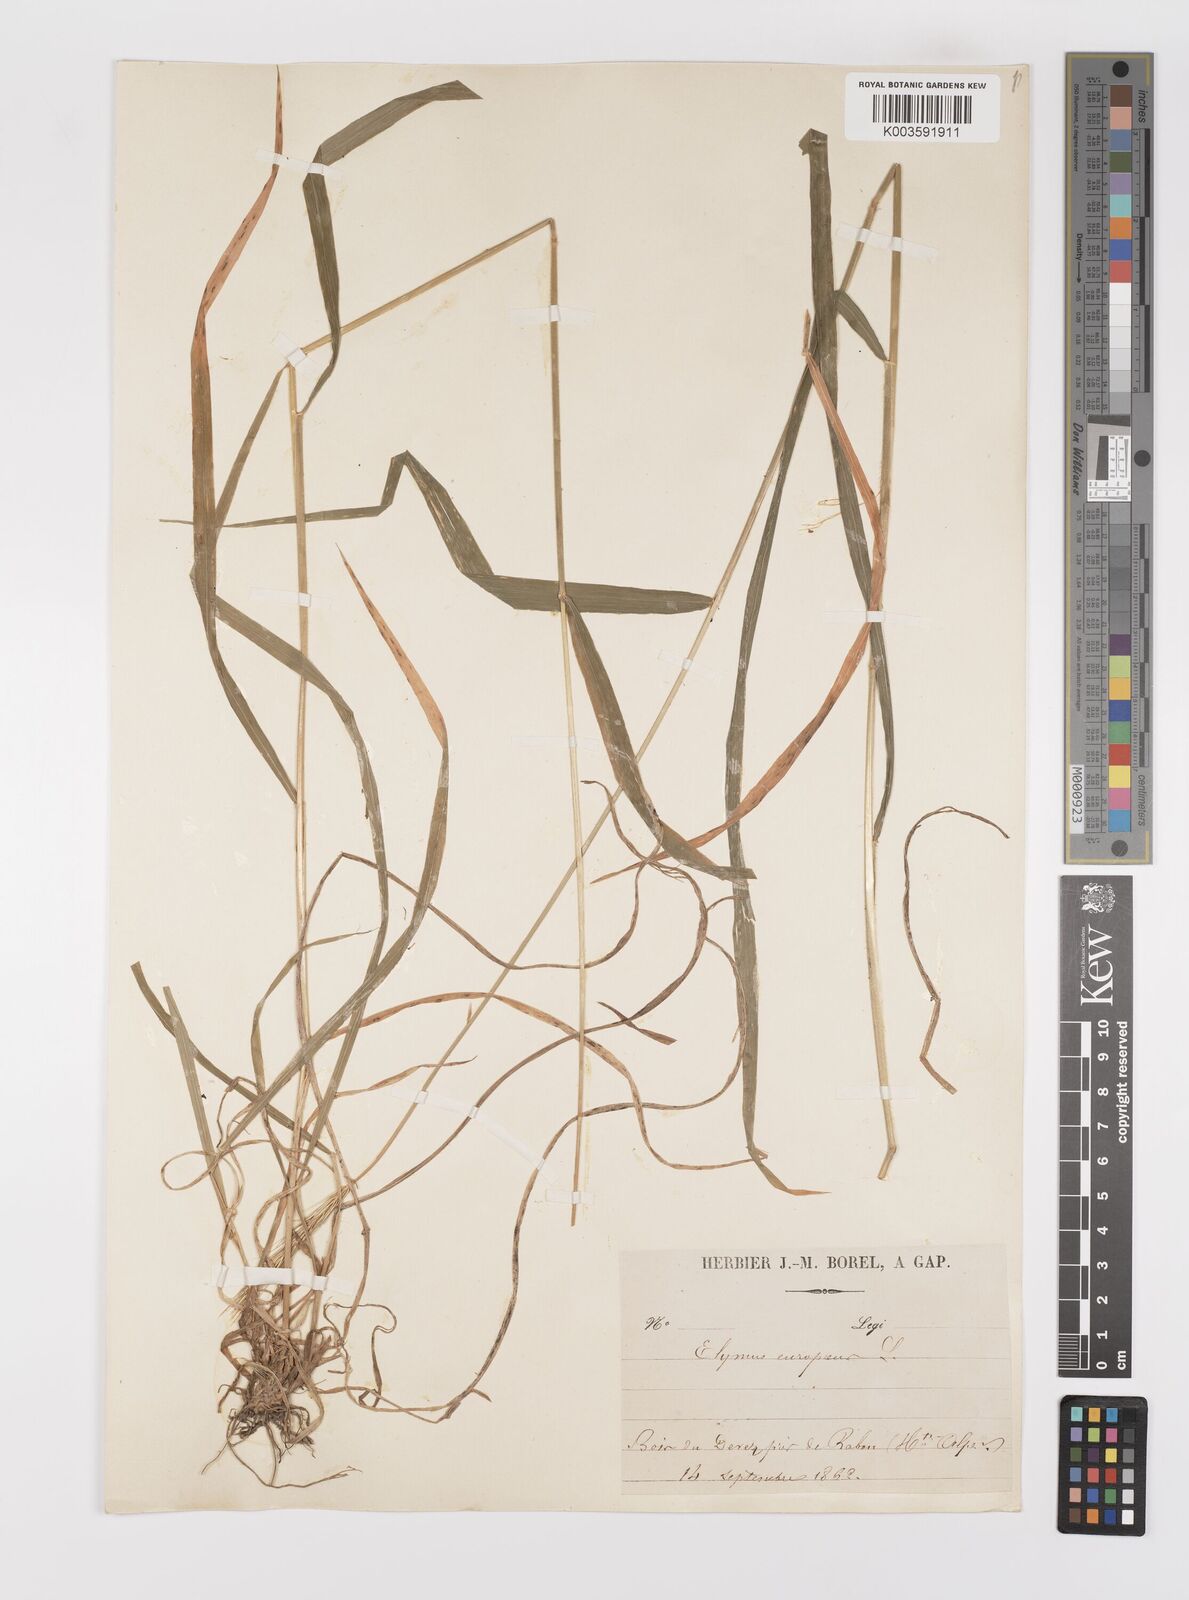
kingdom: Plantae
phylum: Tracheophyta
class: Liliopsida
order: Poales
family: Poaceae
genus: Hordelymus
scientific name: Hordelymus europaeus
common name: Wood-barley
